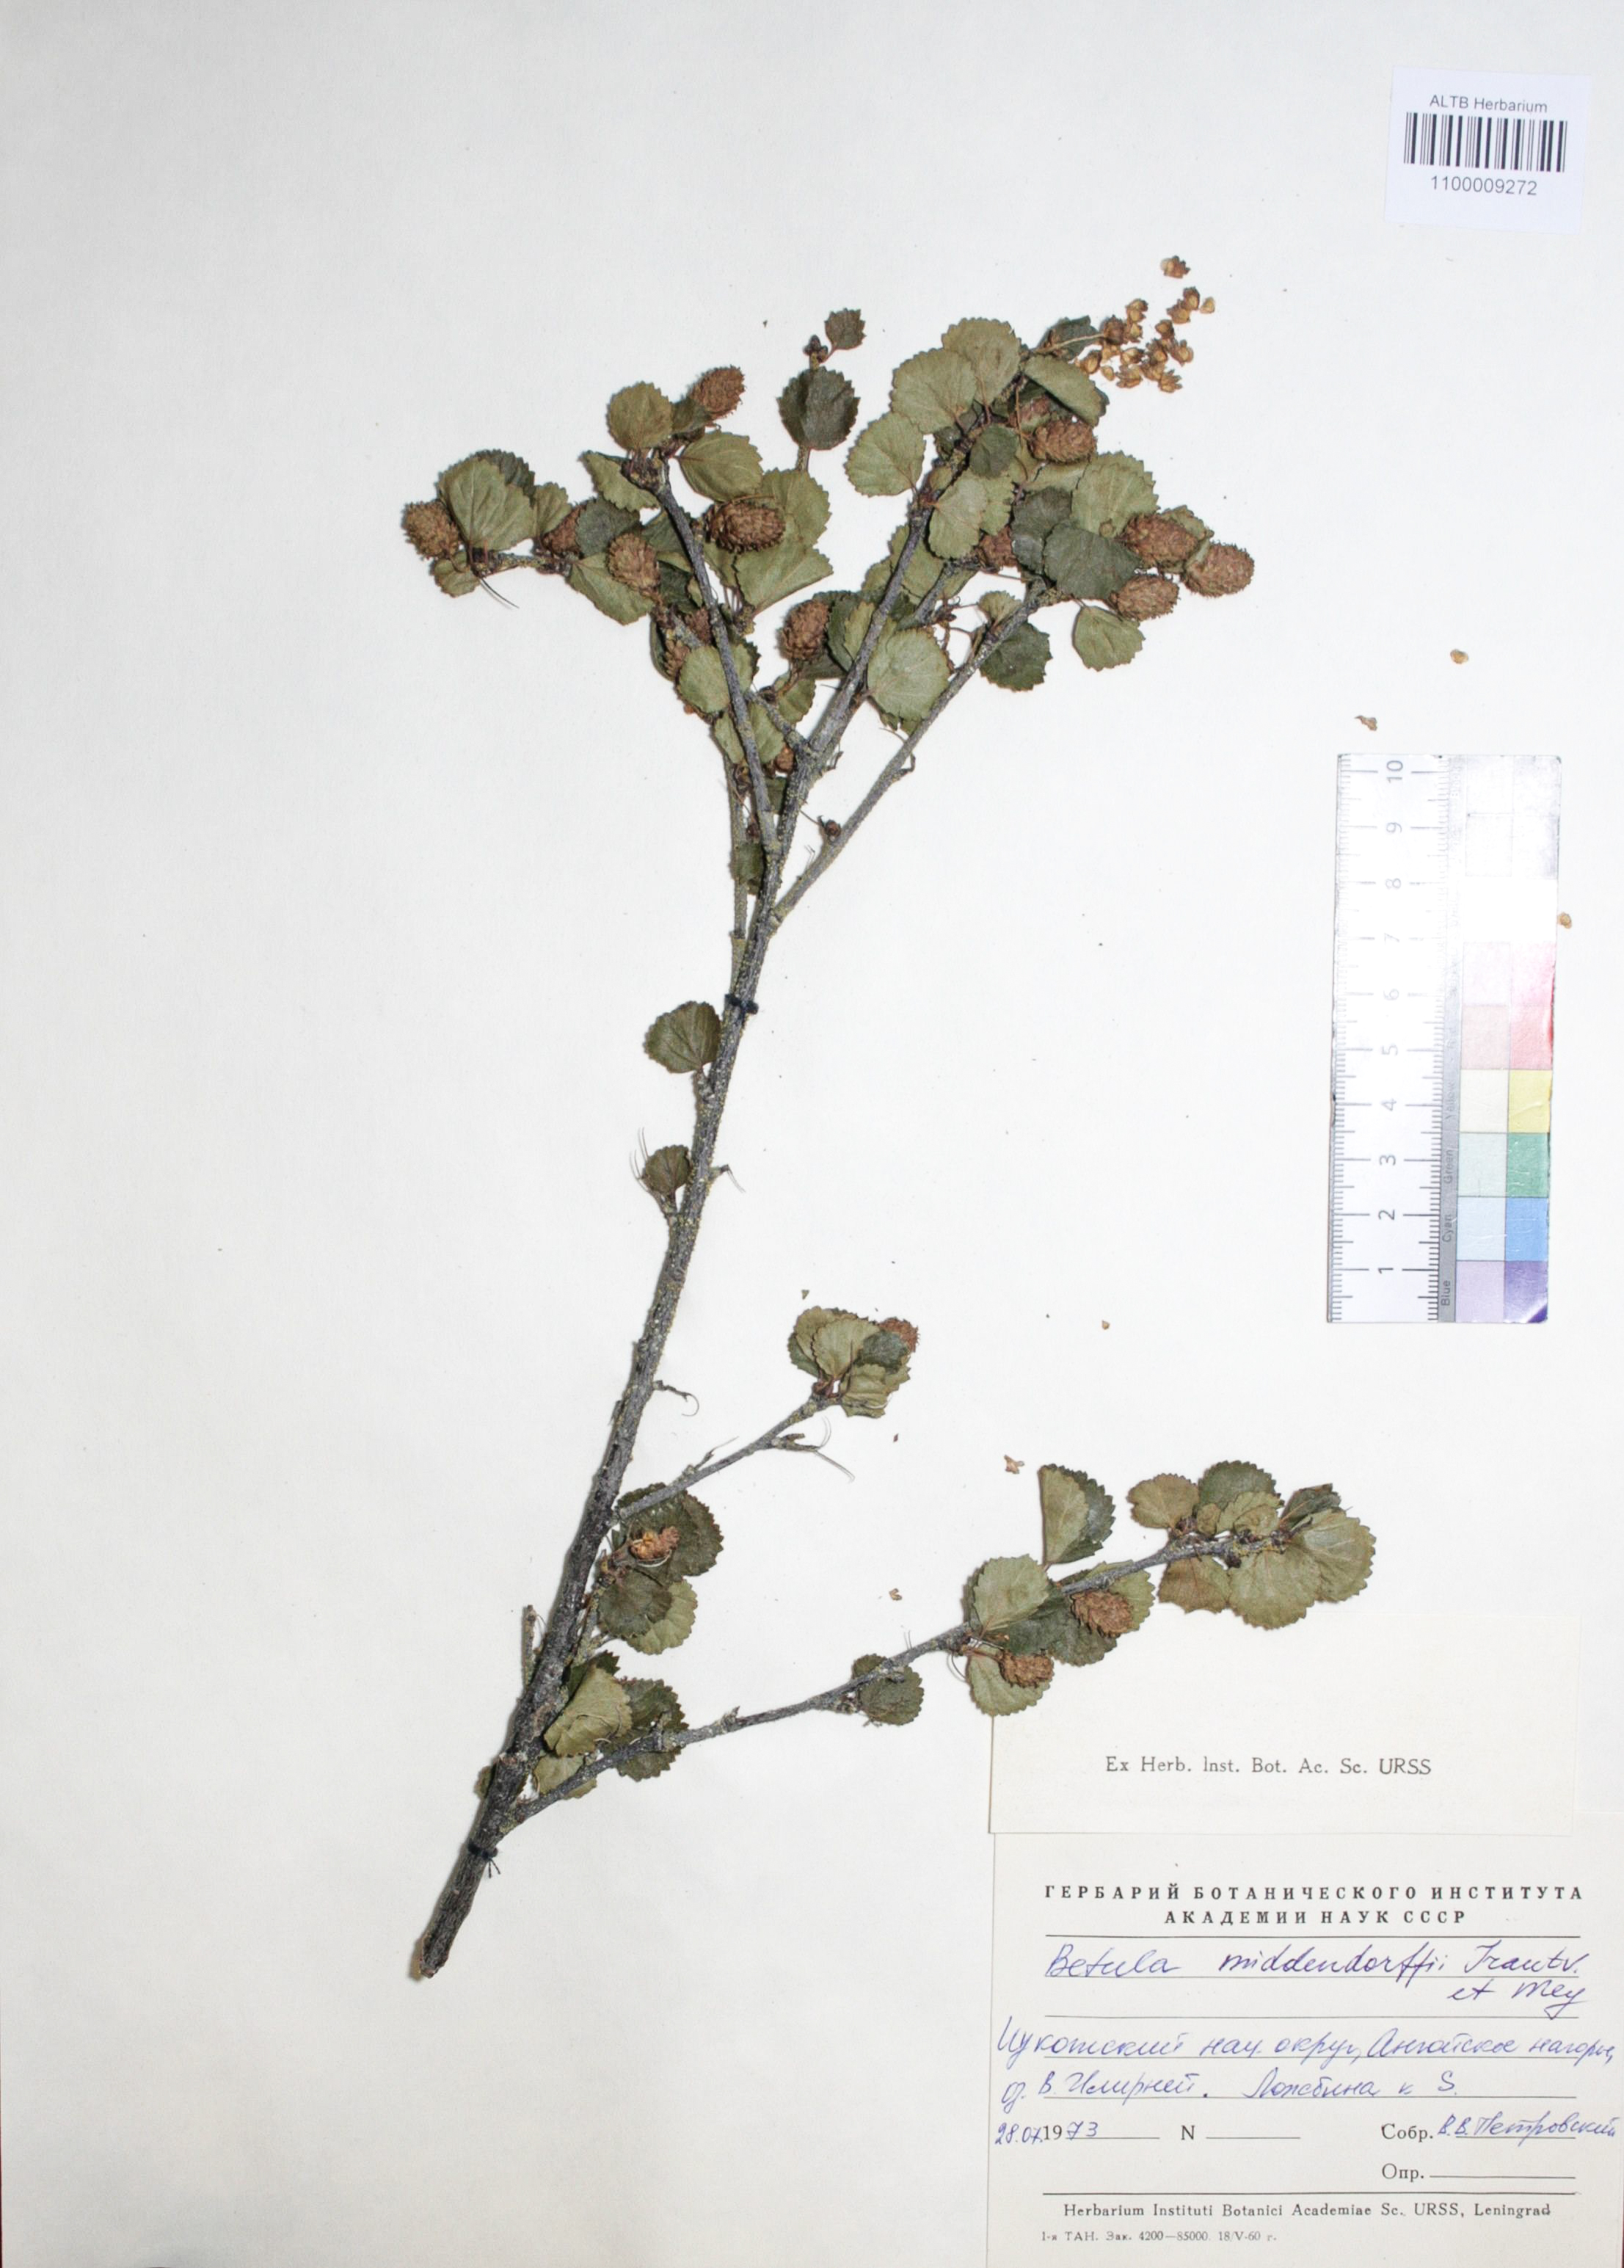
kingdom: Plantae
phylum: Tracheophyta
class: Magnoliopsida
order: Fagales
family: Betulaceae
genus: Betula
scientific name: Betula fruticosa
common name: Japanese bog birch
